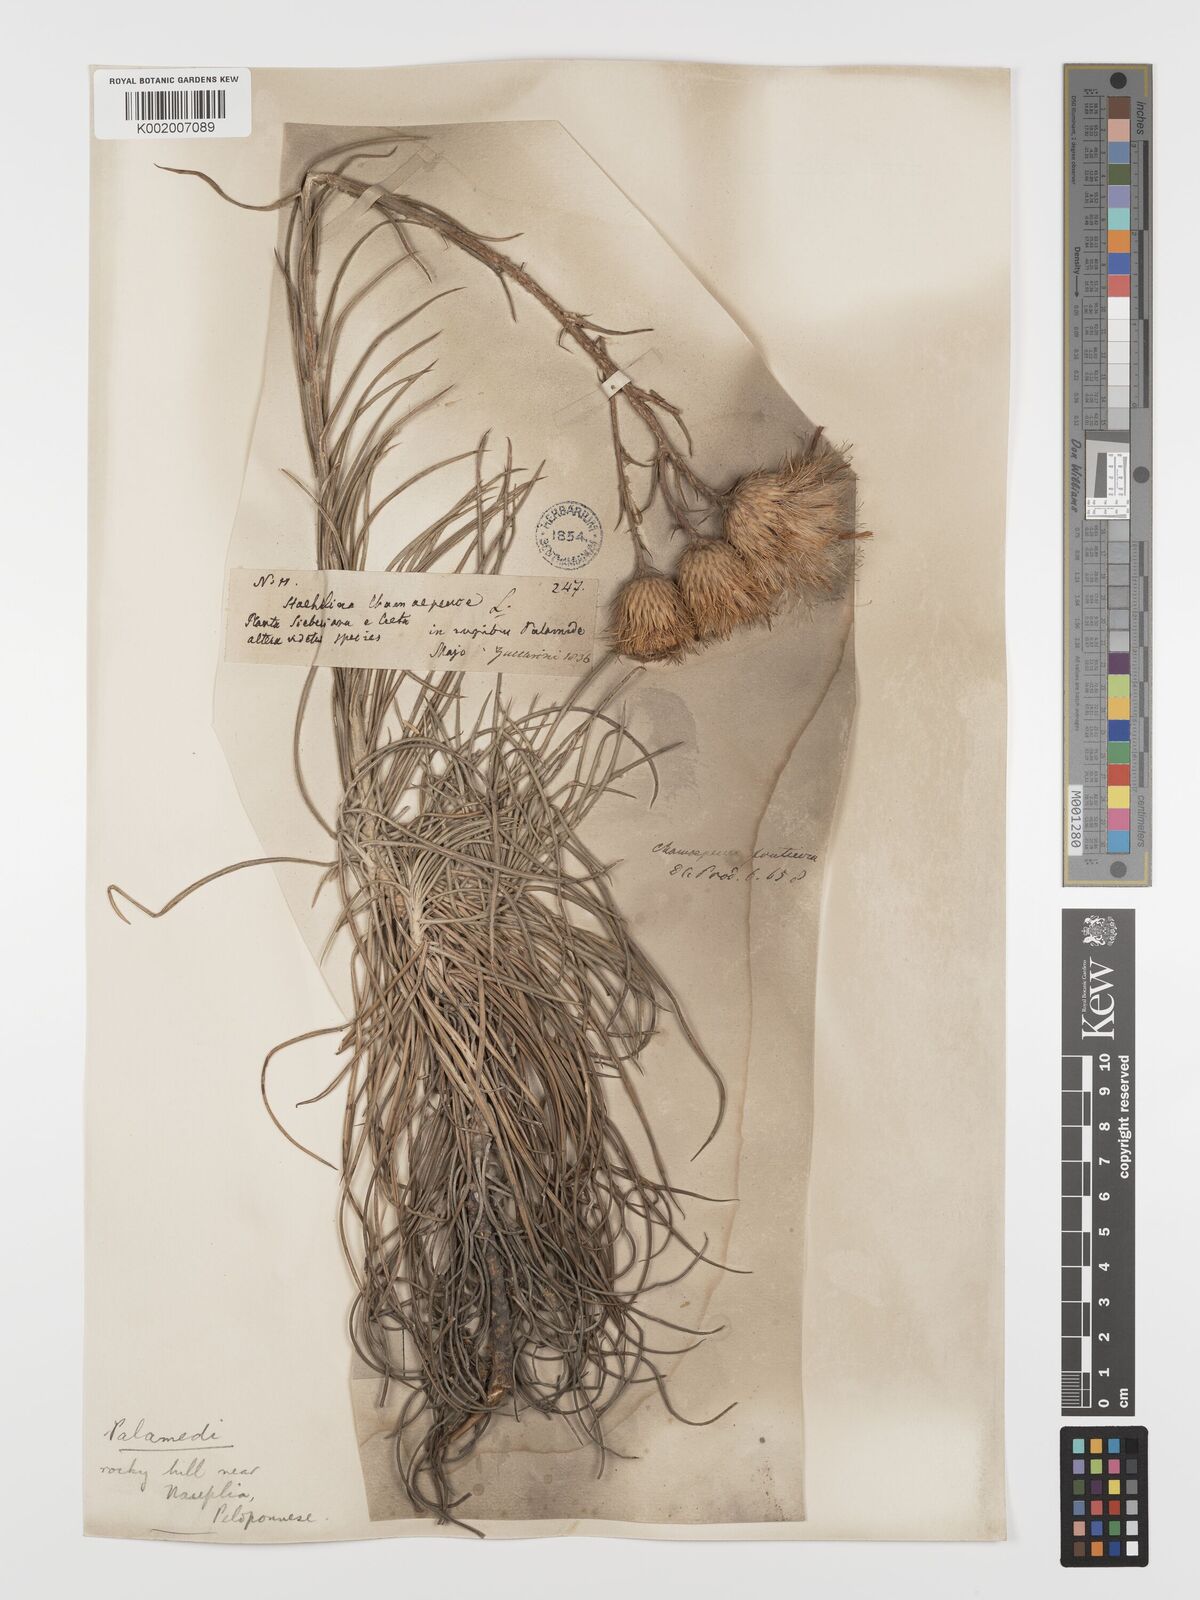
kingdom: Plantae
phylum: Tracheophyta
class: Magnoliopsida
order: Asterales
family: Asteraceae
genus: Ptilostemon
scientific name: Ptilostemon gnaphaloides
